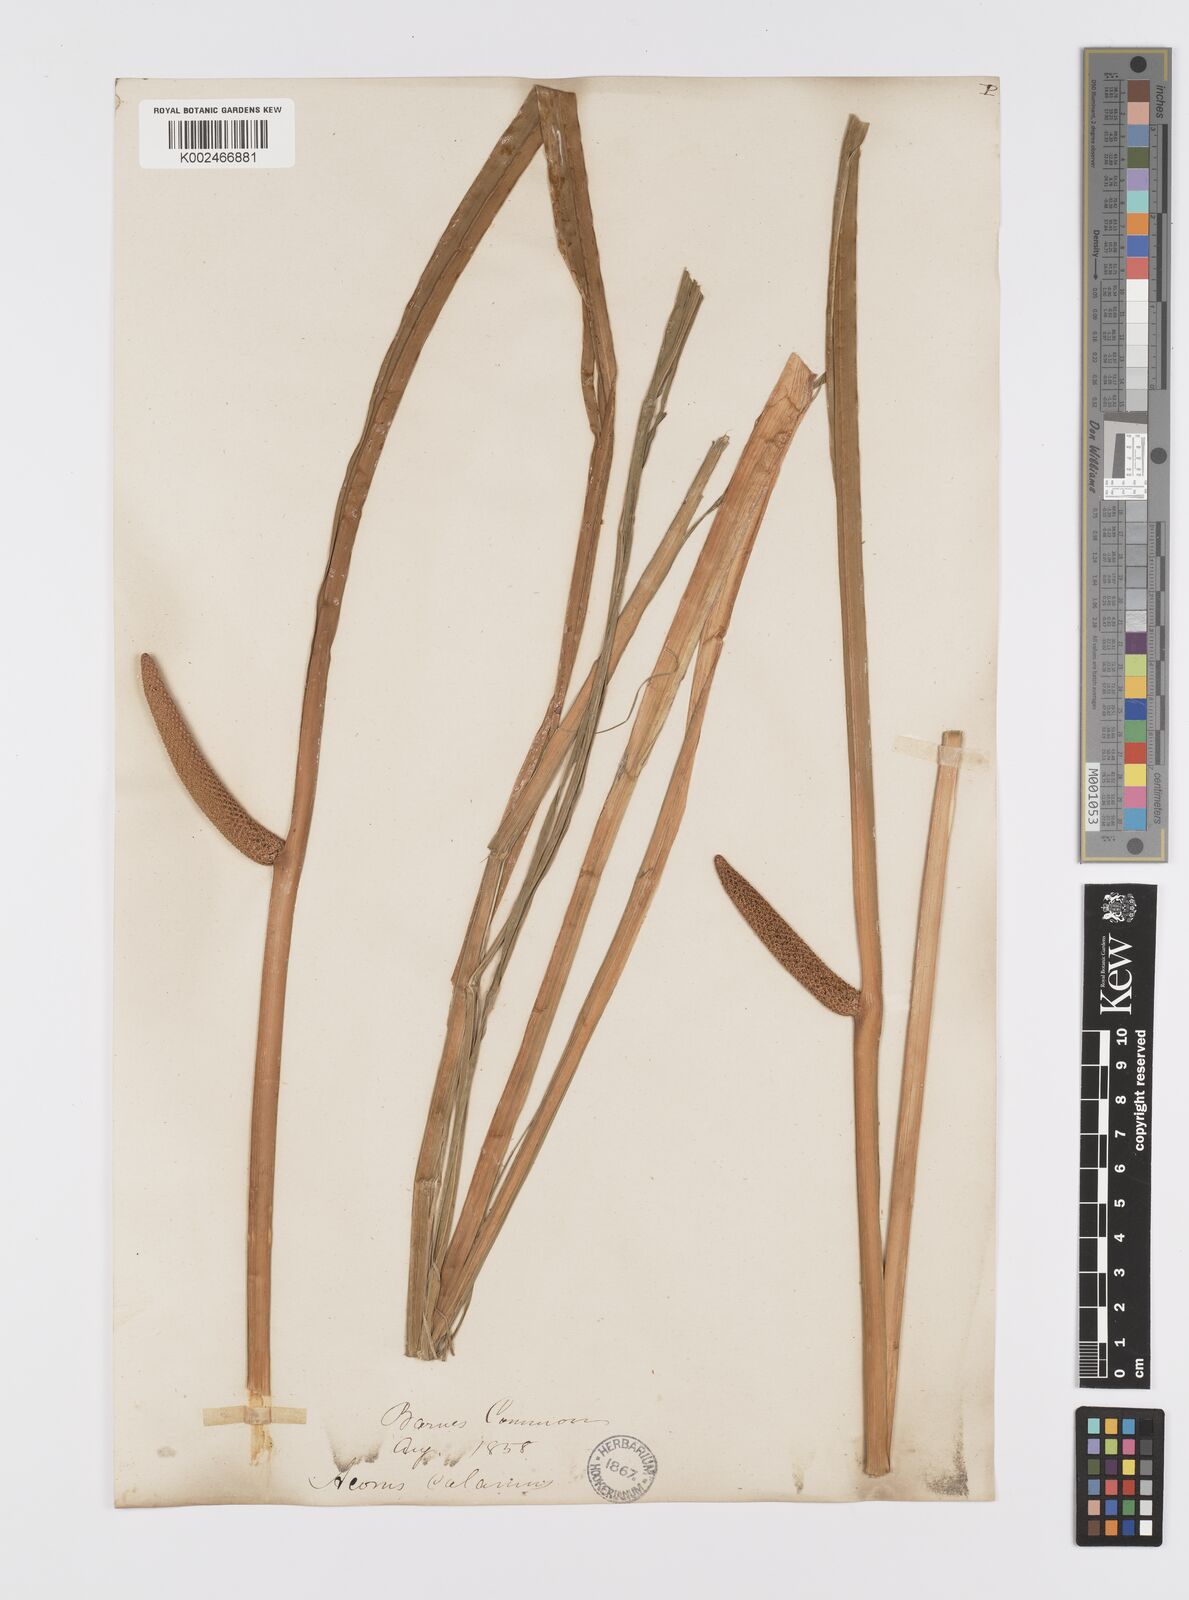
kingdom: Plantae
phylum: Tracheophyta
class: Liliopsida
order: Acorales
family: Acoraceae
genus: Acorus
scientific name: Acorus calamus
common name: Sweet-flag
